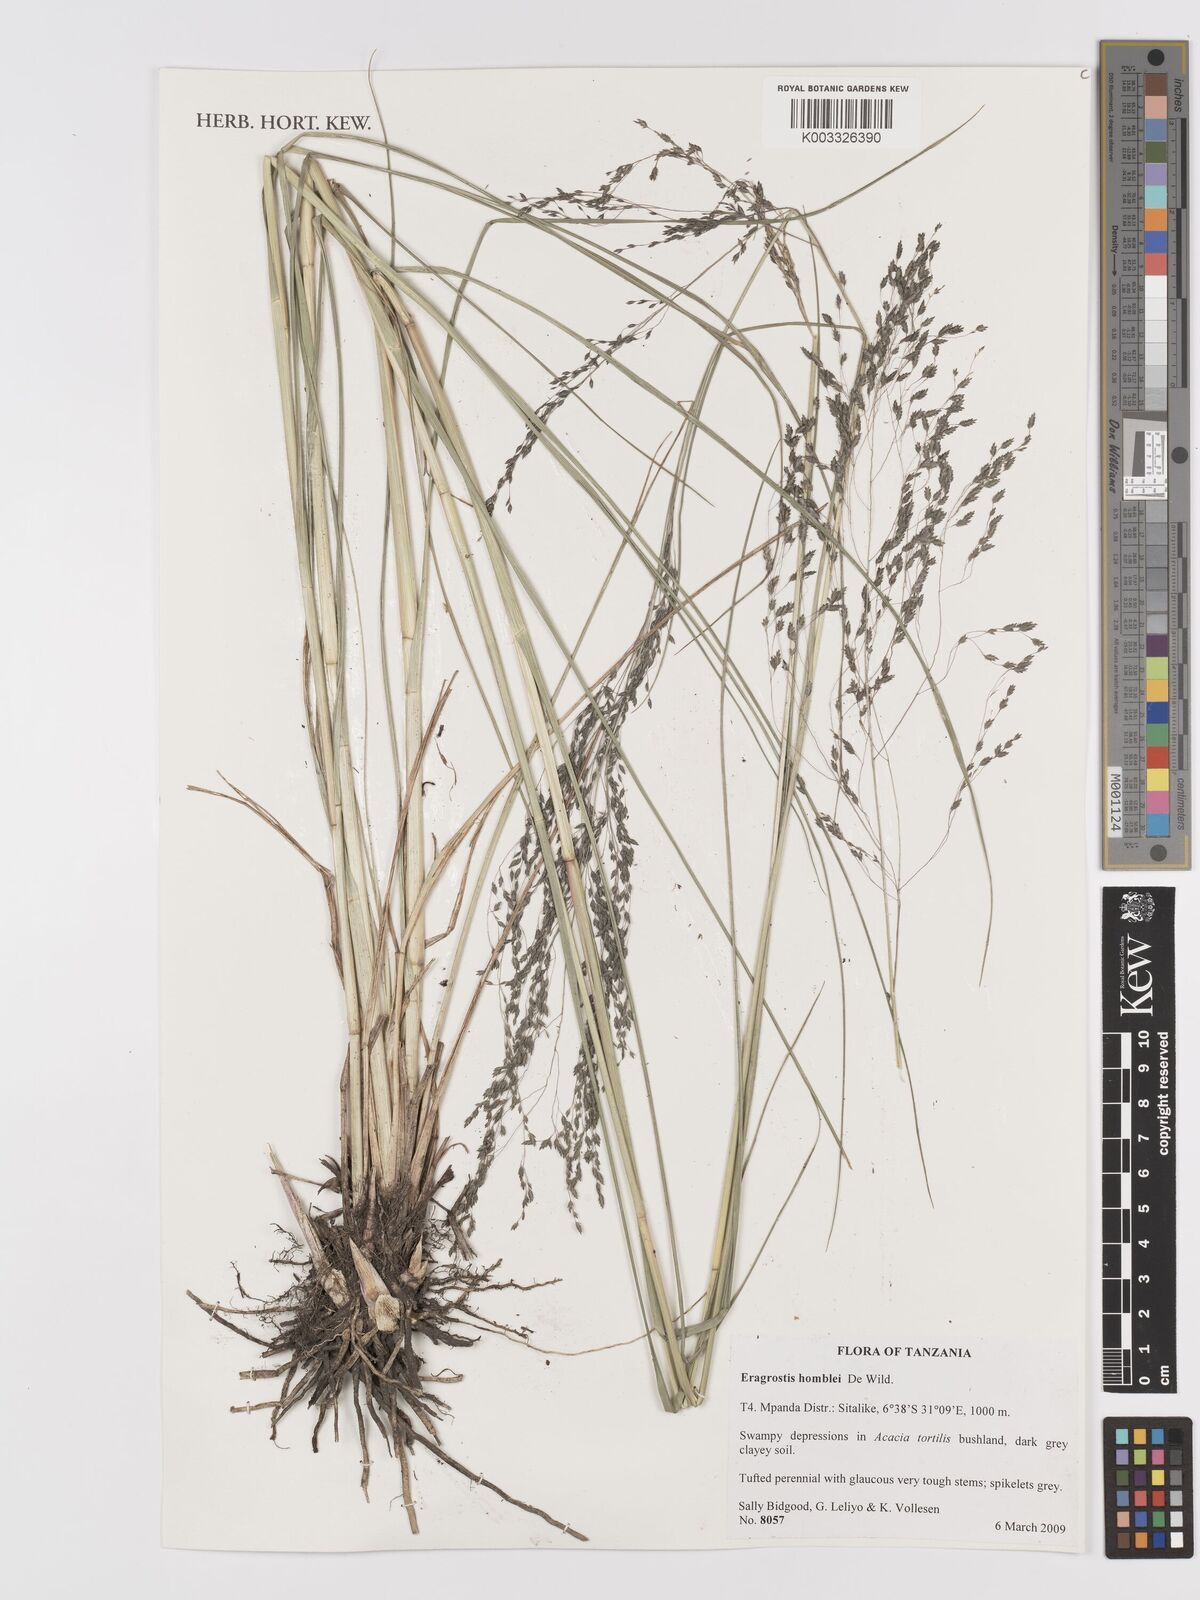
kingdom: Plantae
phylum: Tracheophyta
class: Liliopsida
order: Poales
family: Poaceae
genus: Eragrostis
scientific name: Eragrostis homblei
